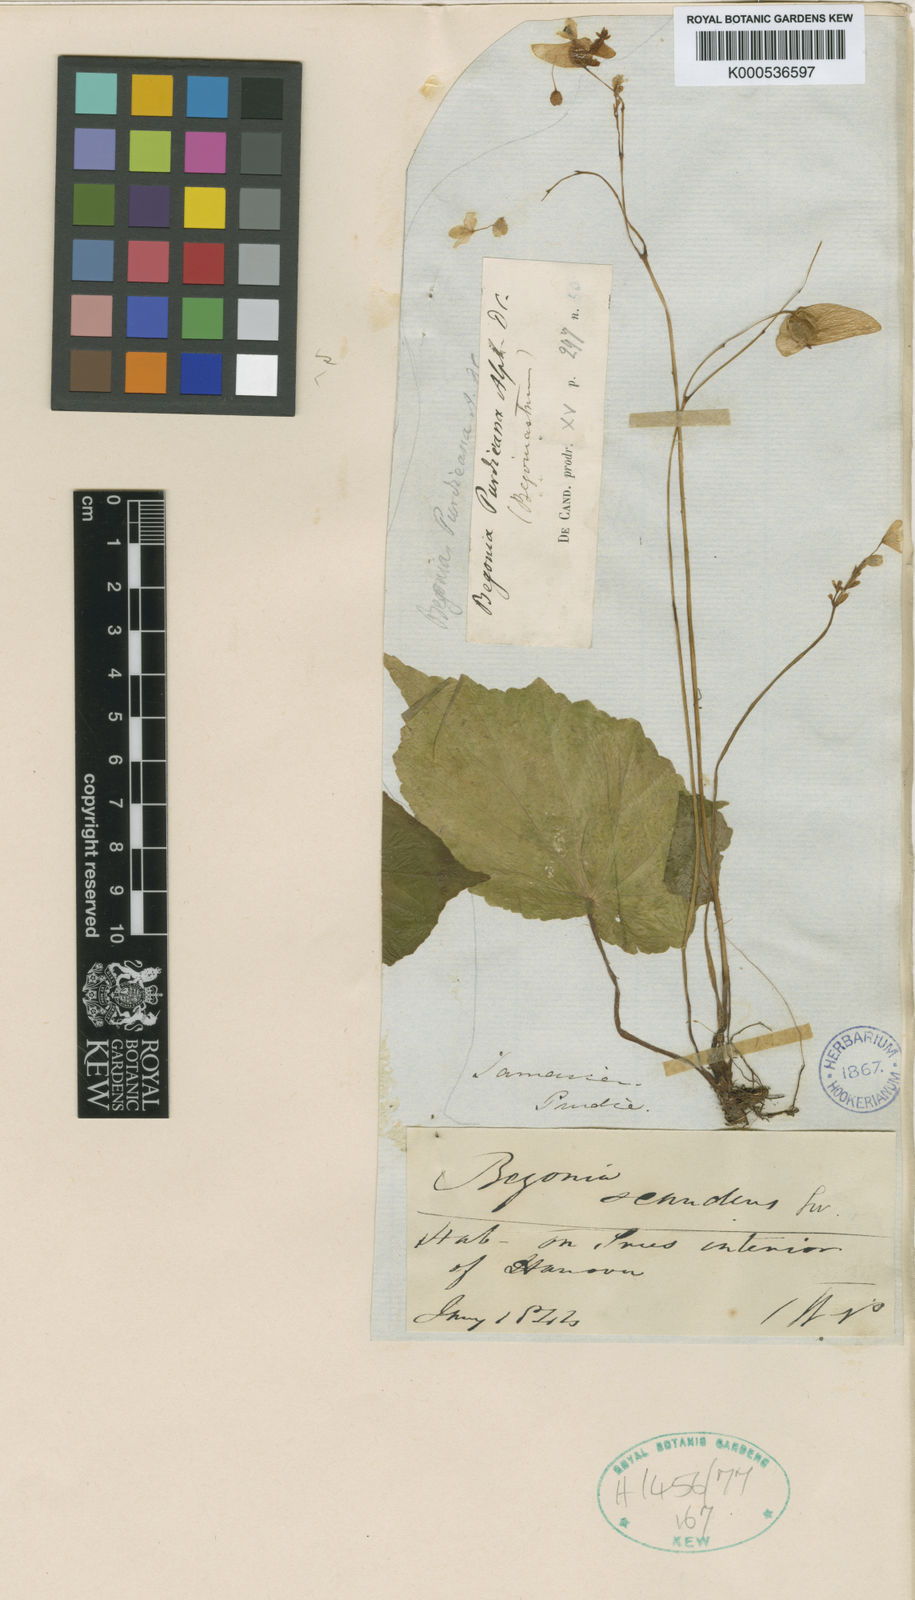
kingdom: Plantae
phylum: Tracheophyta
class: Magnoliopsida
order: Cucurbitales
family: Begoniaceae
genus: Begonia
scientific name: Begonia purdieana
